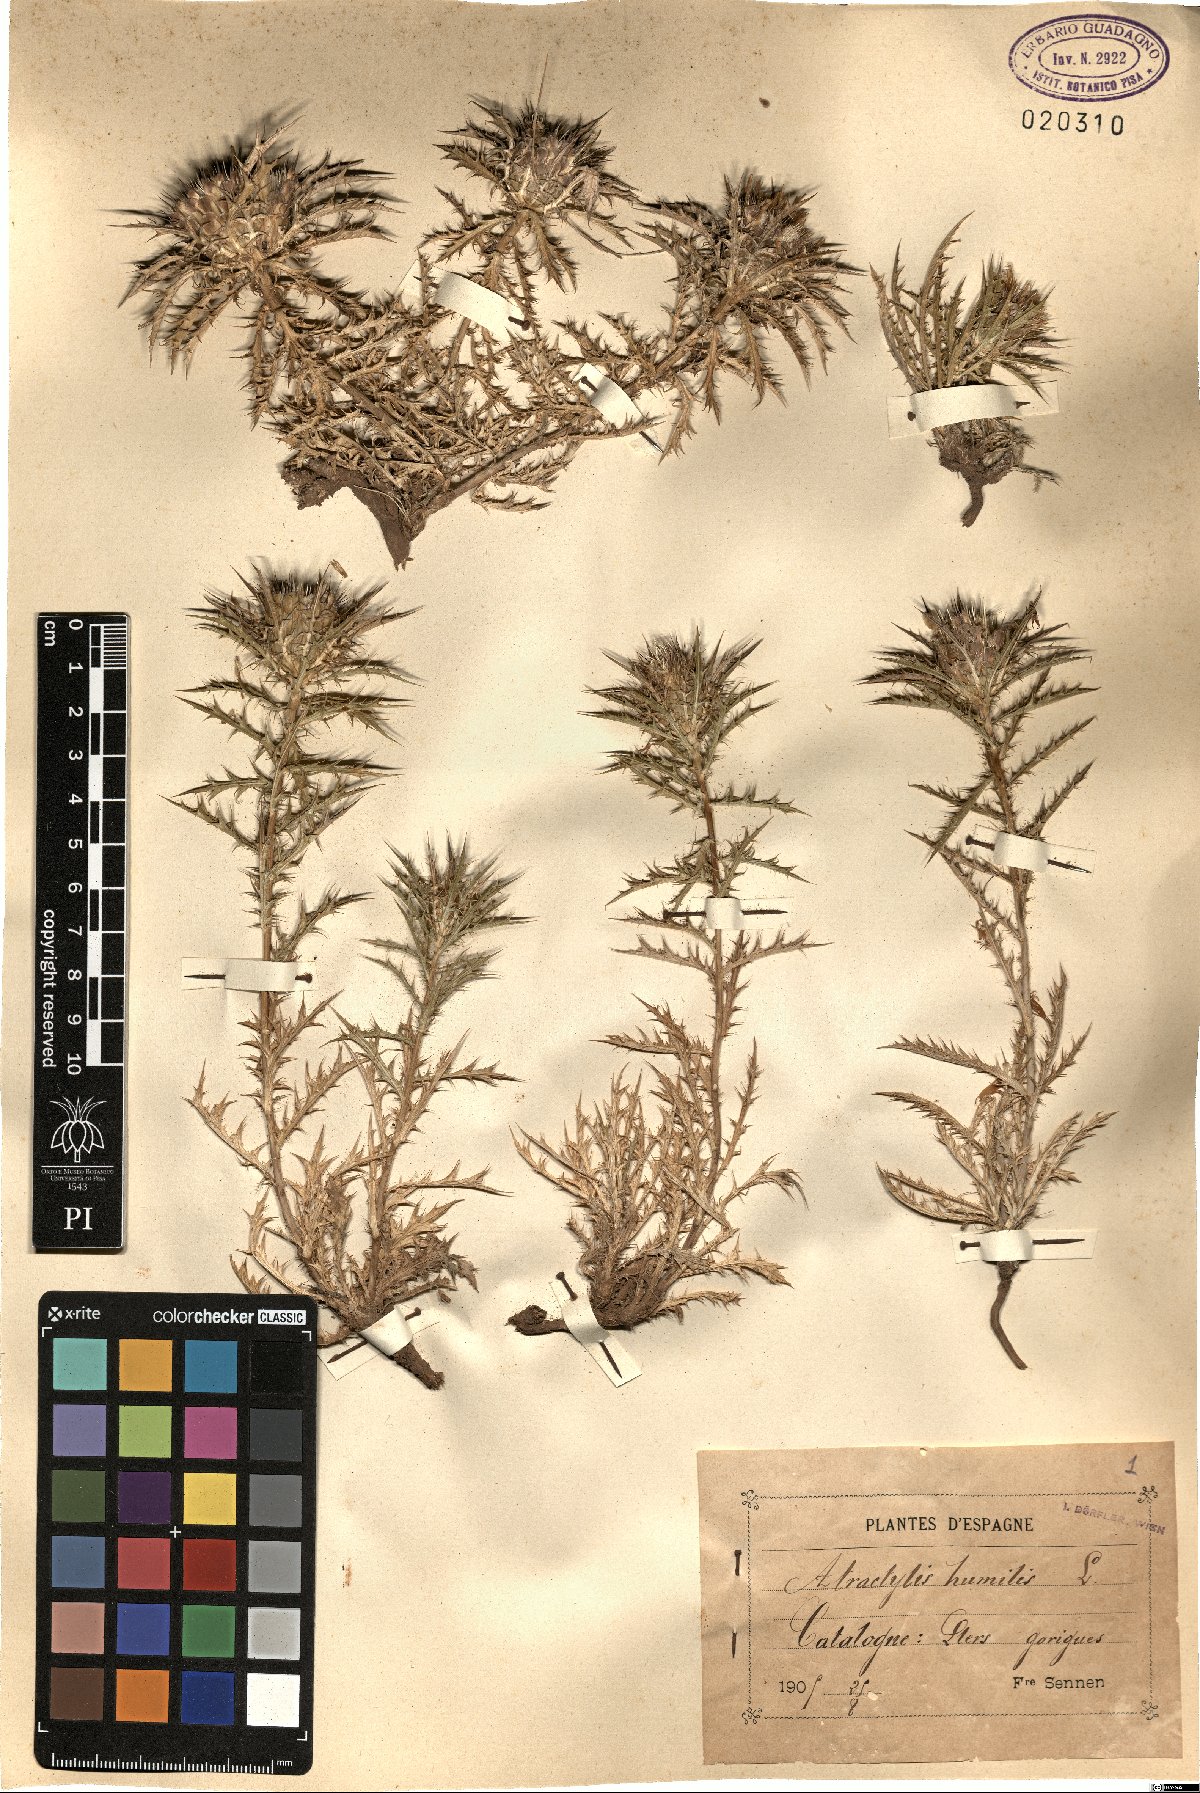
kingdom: Plantae
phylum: Tracheophyta
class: Magnoliopsida
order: Asterales
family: Asteraceae
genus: Atractylis
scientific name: Atractylis humilis
